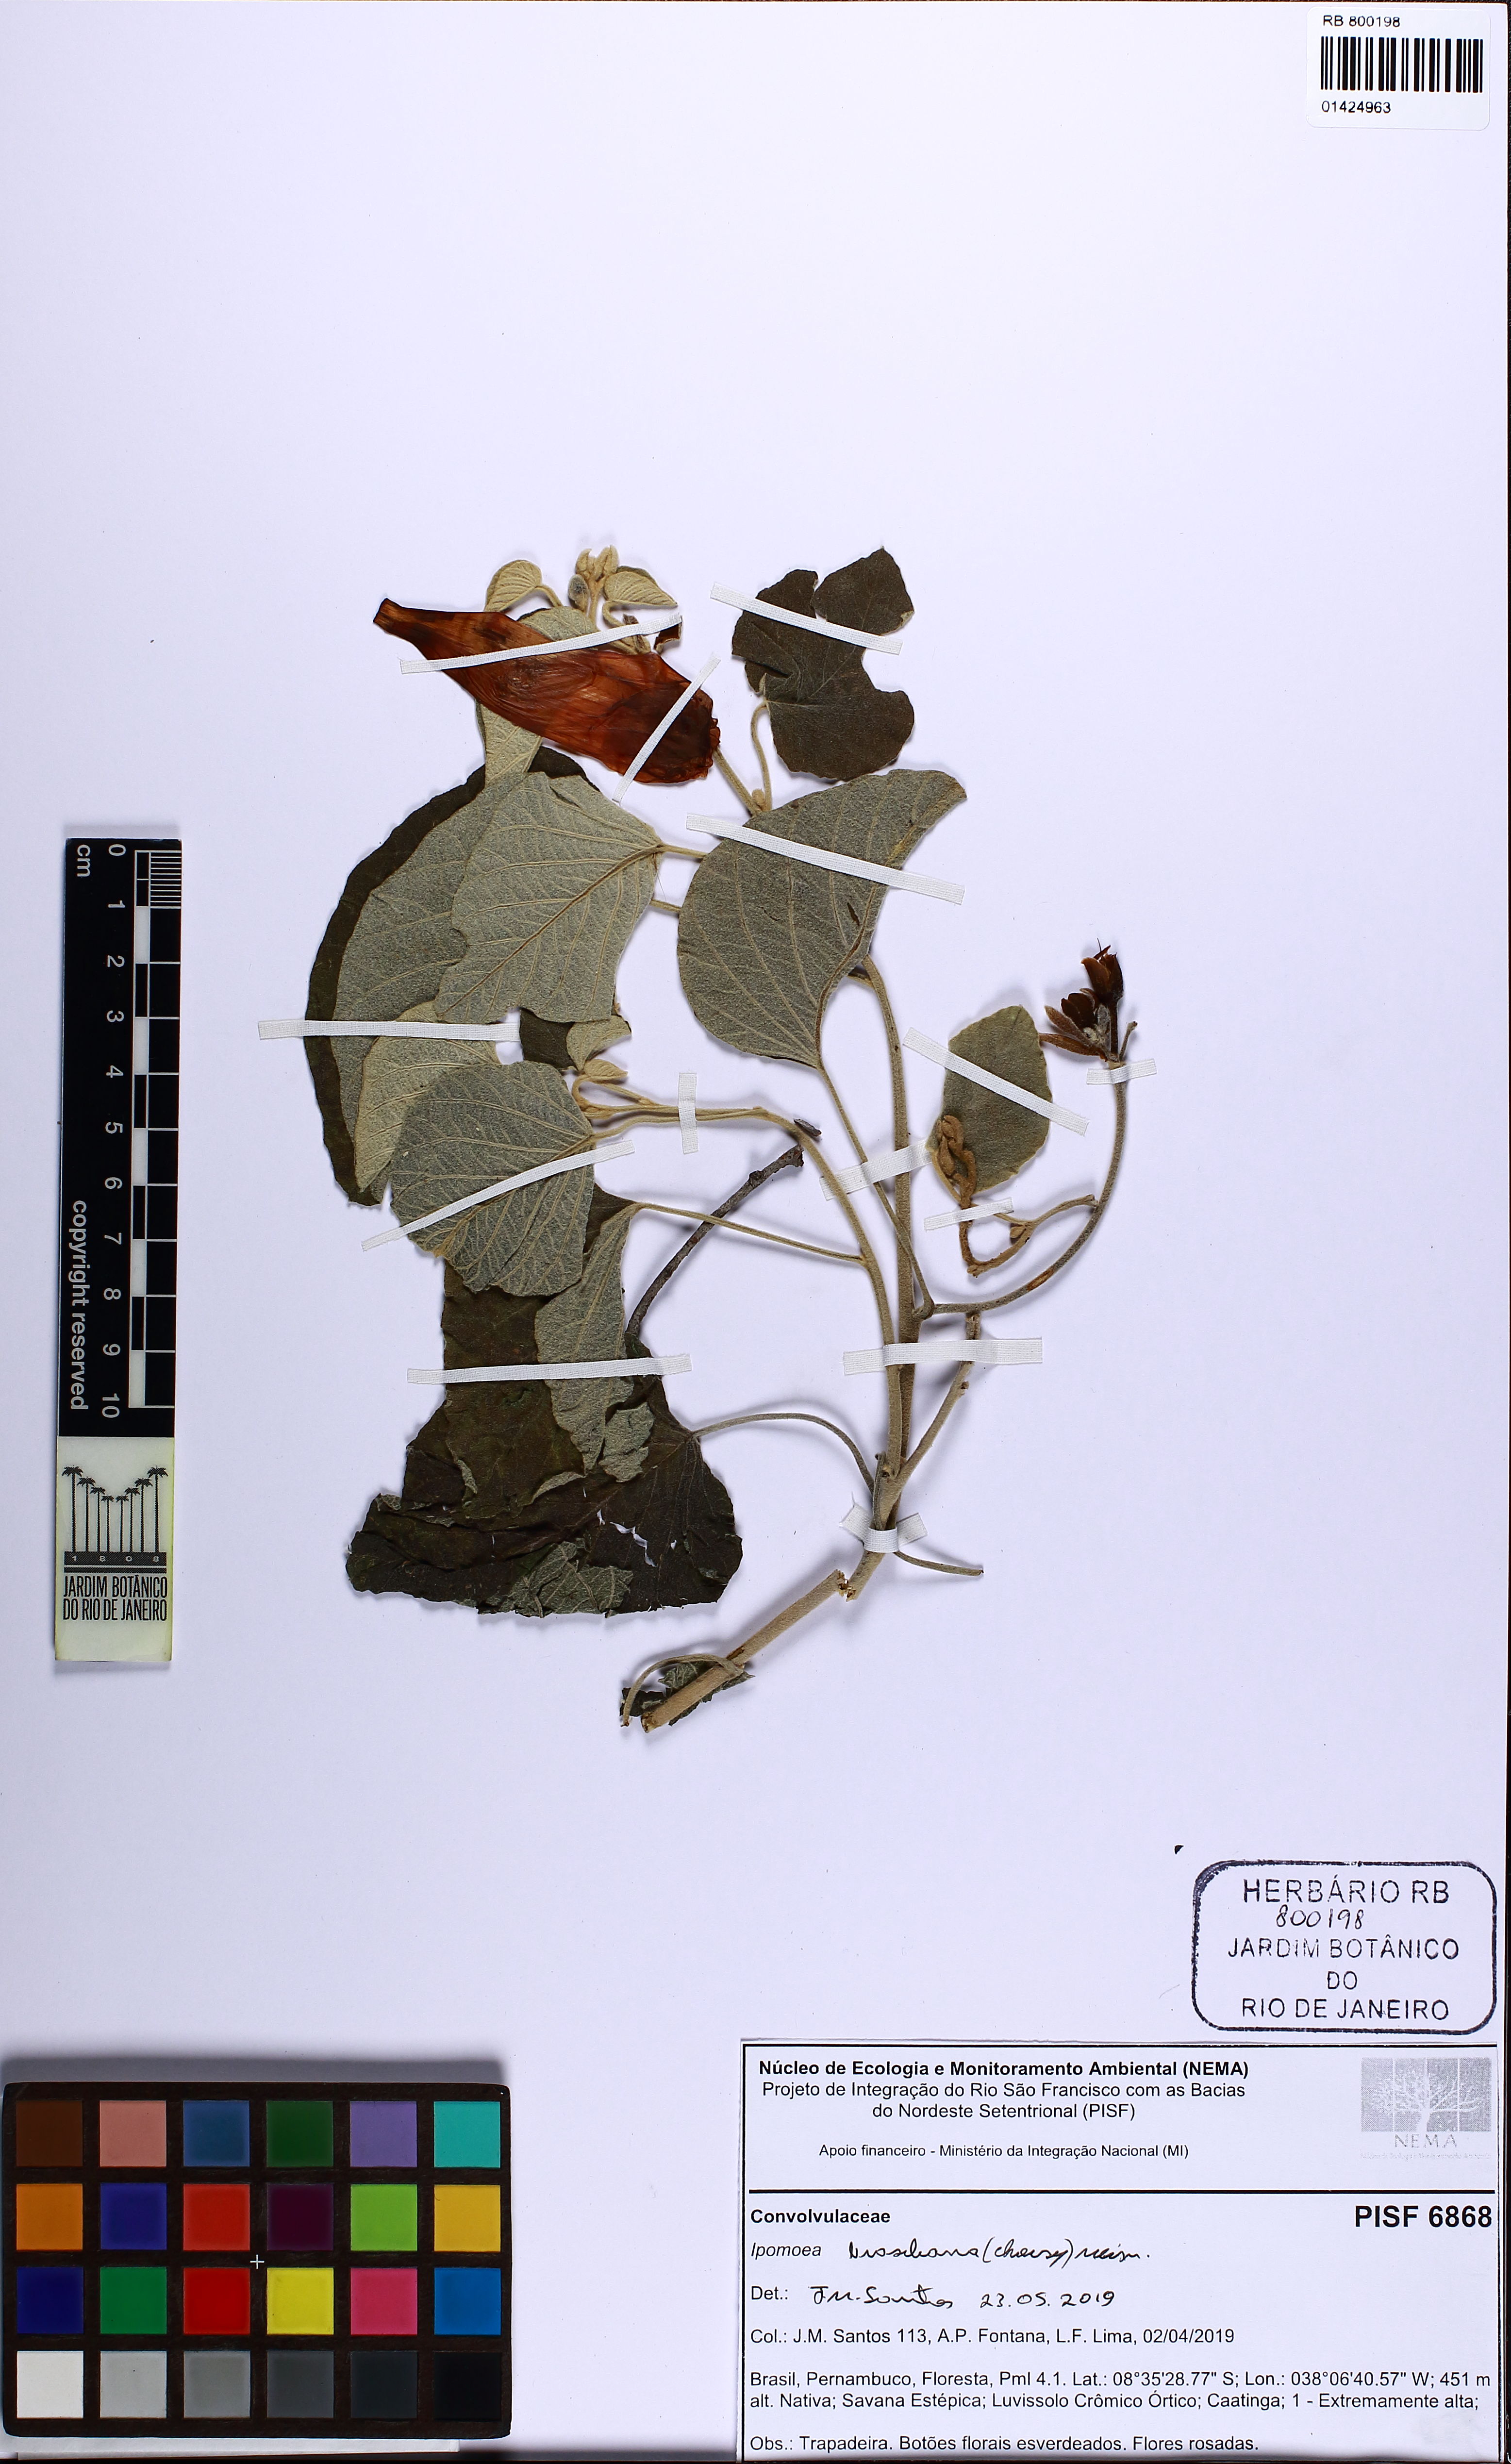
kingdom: Plantae
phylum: Tracheophyta
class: Magnoliopsida
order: Solanales
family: Convolvulaceae
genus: Ipomoea
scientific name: Ipomoea brasiliana
